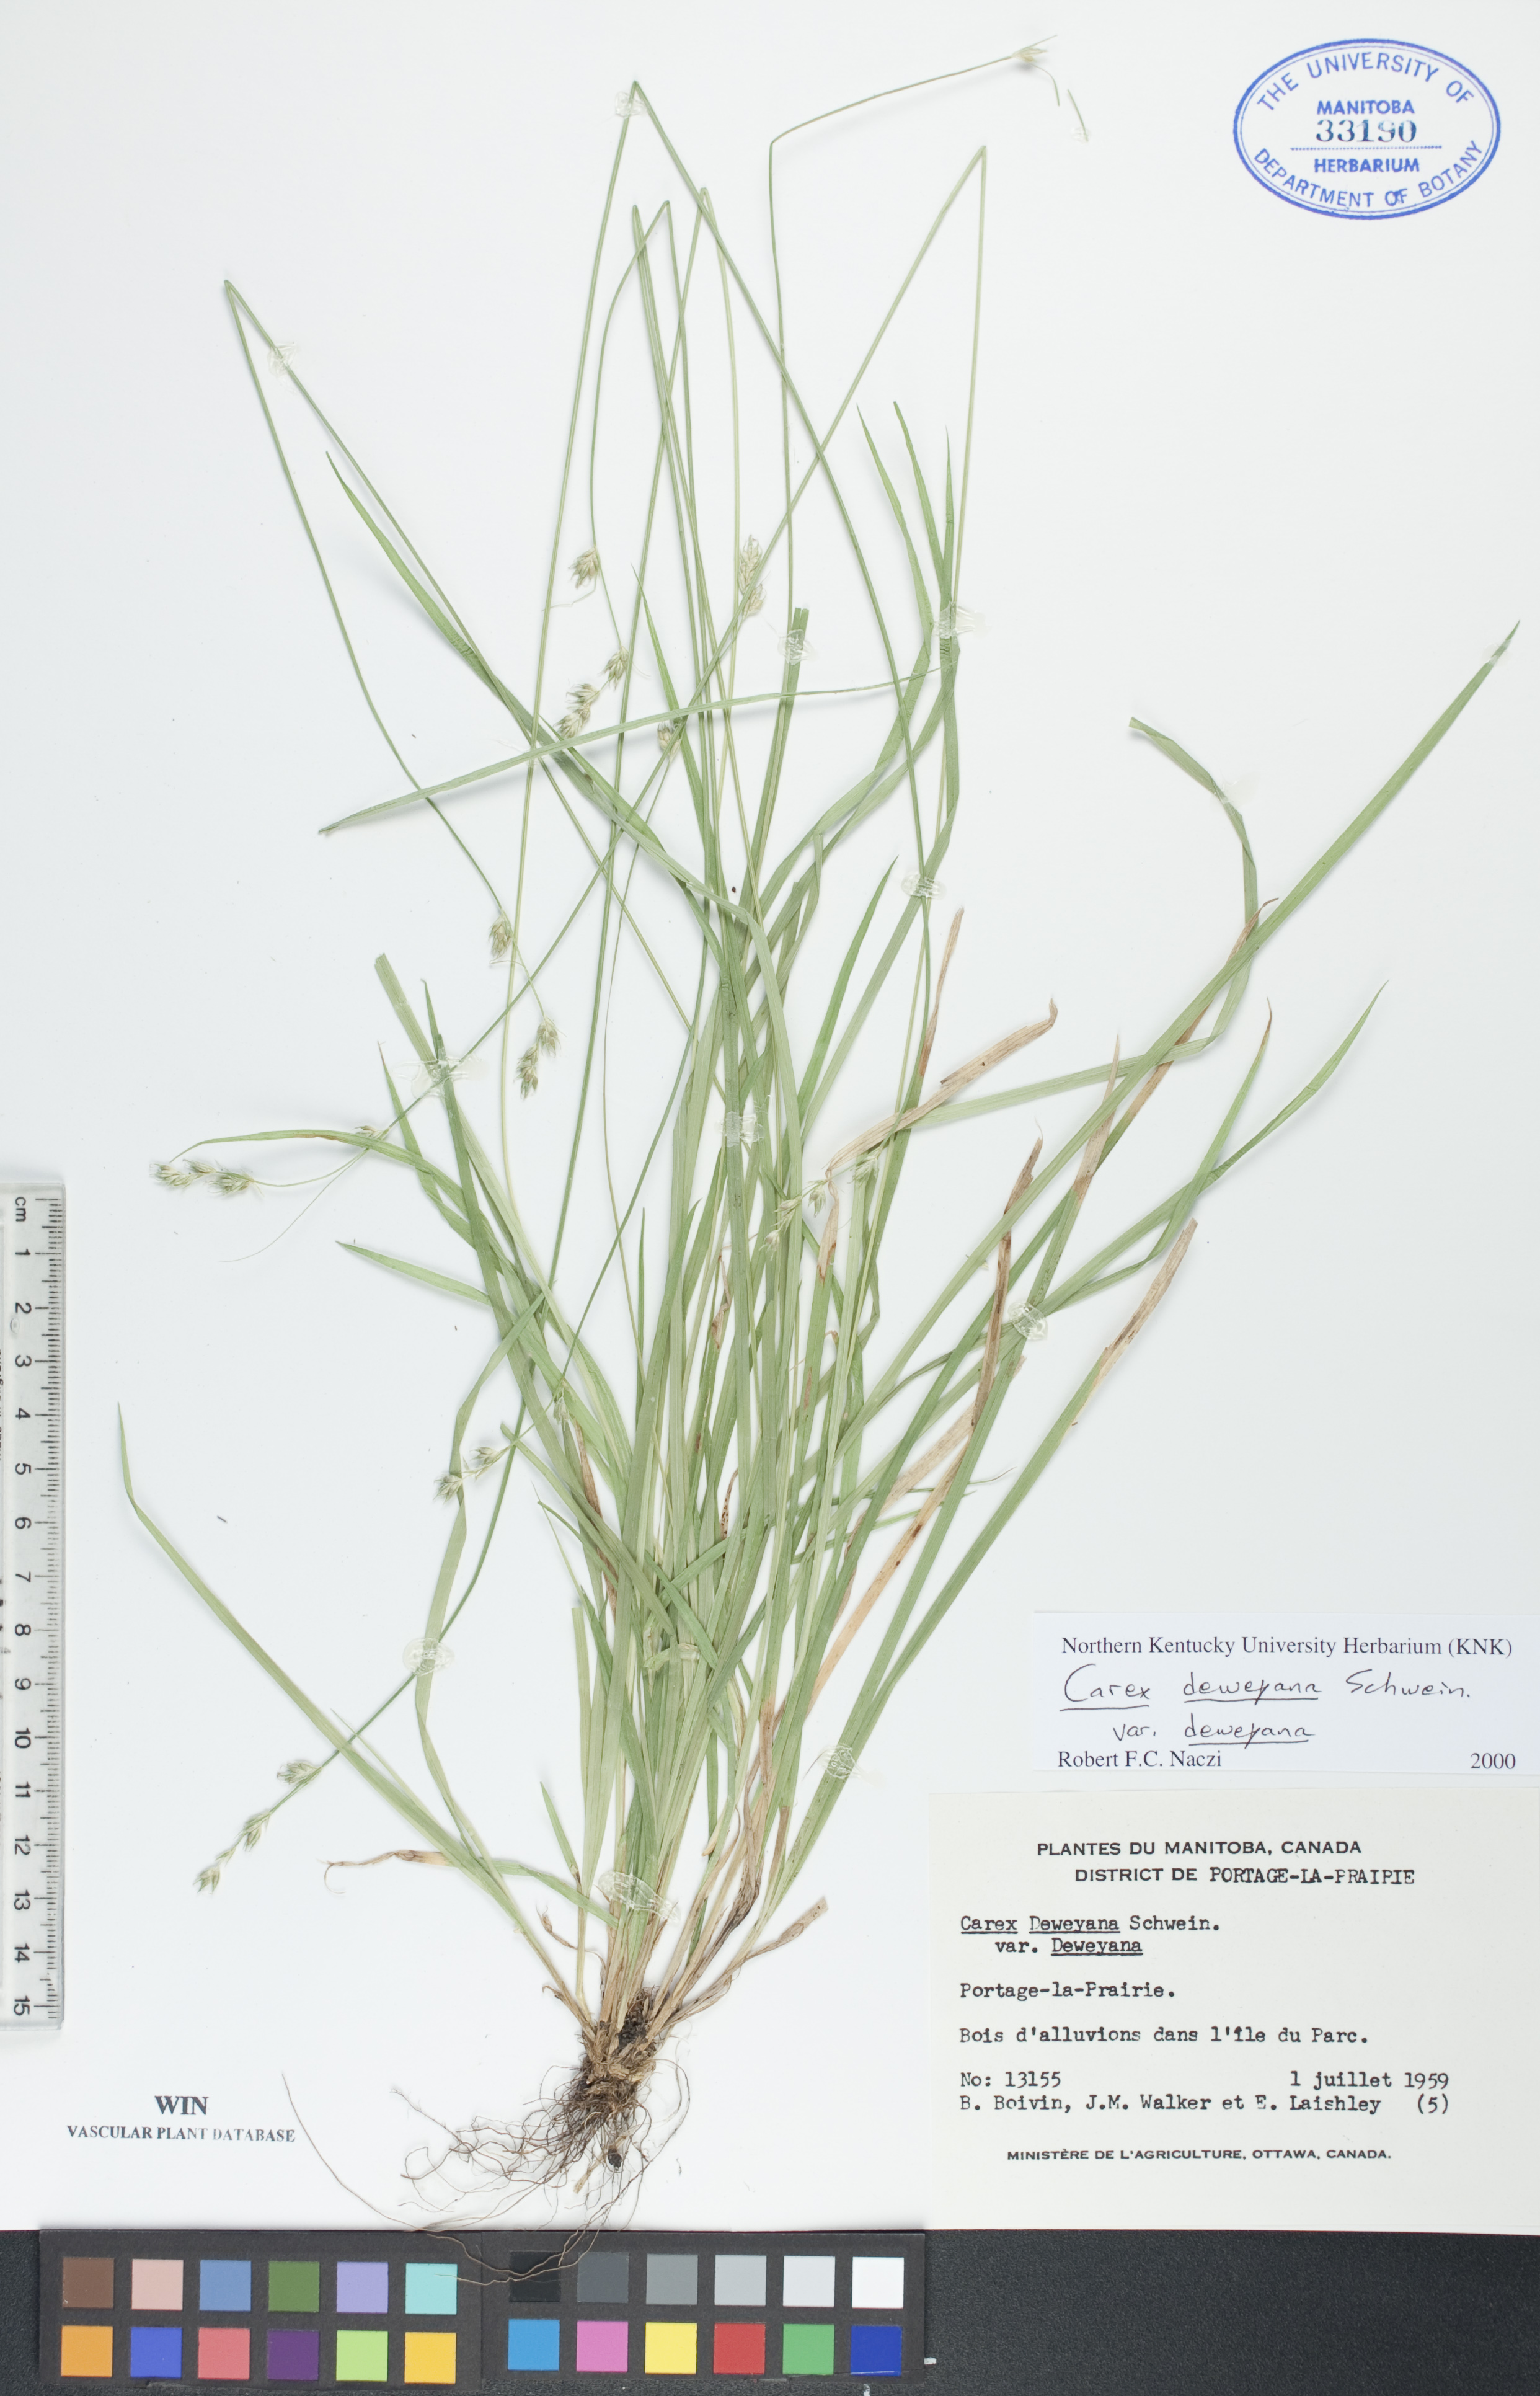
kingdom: Plantae
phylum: Tracheophyta
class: Liliopsida
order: Poales
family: Cyperaceae
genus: Carex
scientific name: Carex deweyana
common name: Dewey's sedge
